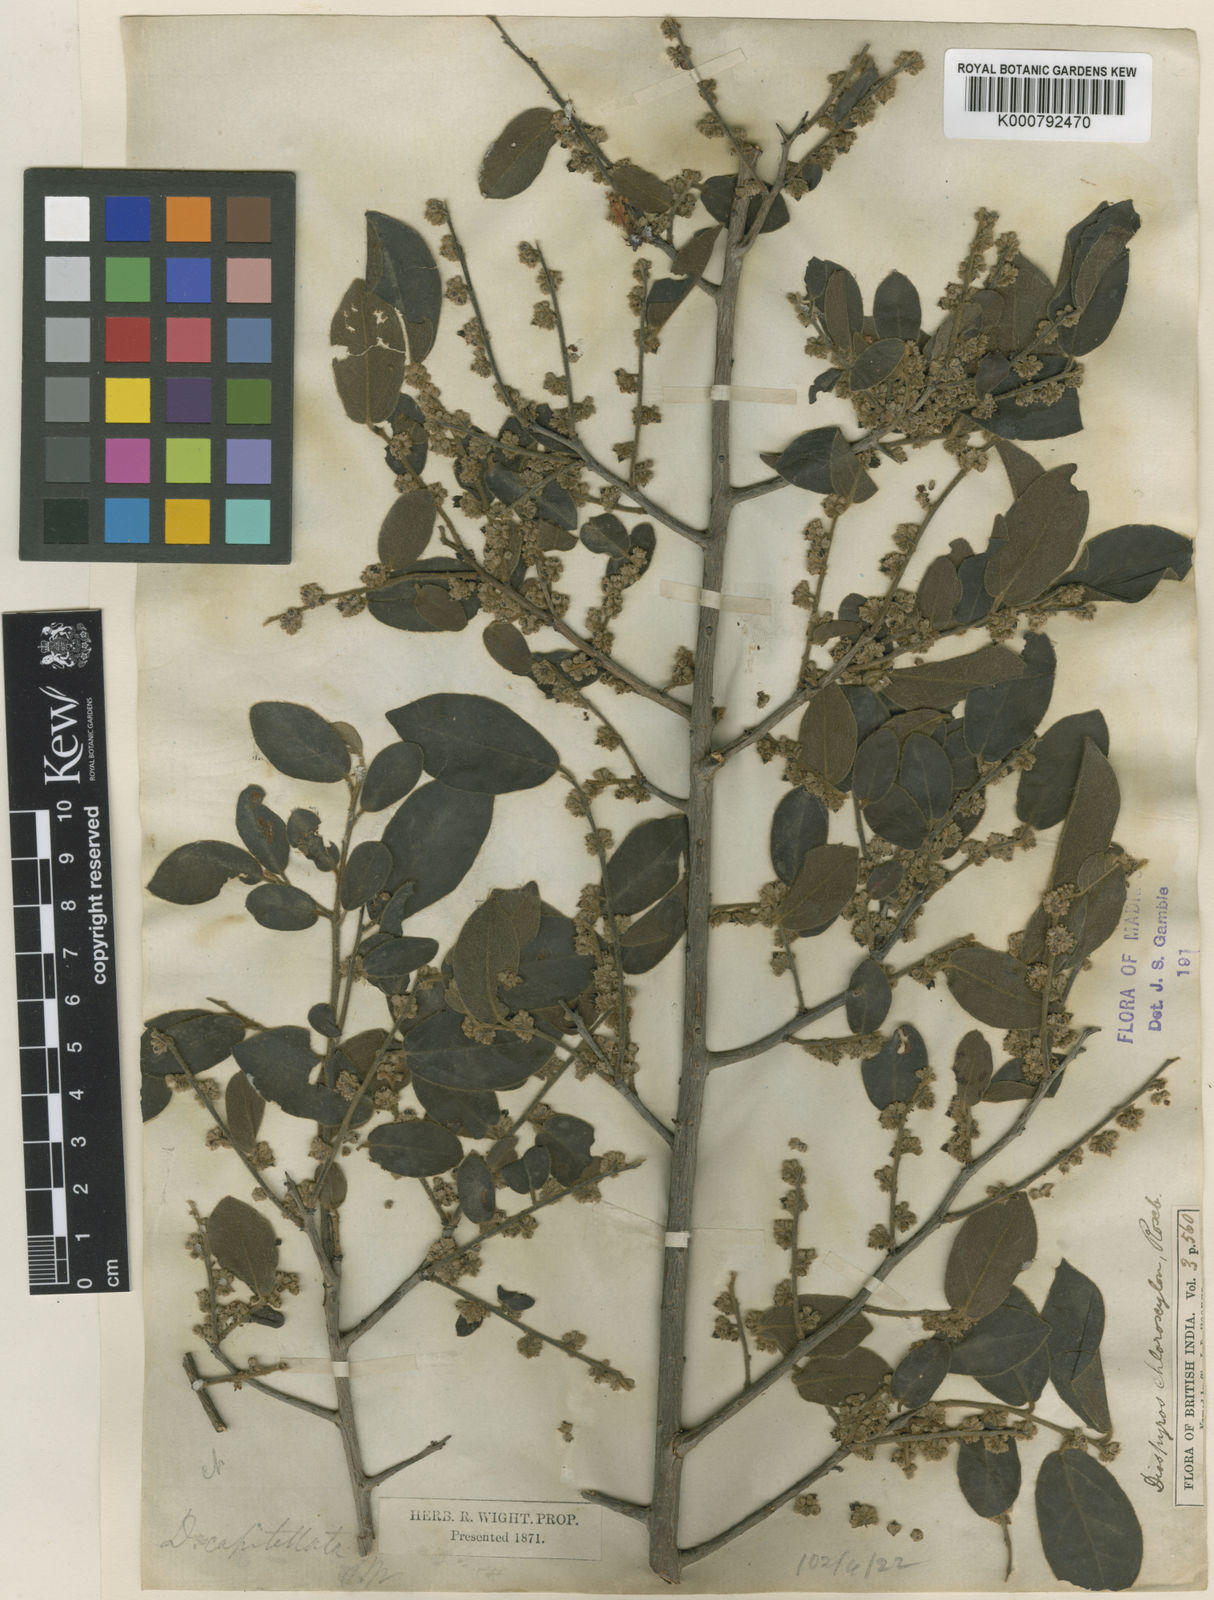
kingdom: Plantae
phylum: Tracheophyta
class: Magnoliopsida
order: Ericales
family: Ebenaceae
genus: Diospyros
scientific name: Diospyros chloroxylon
